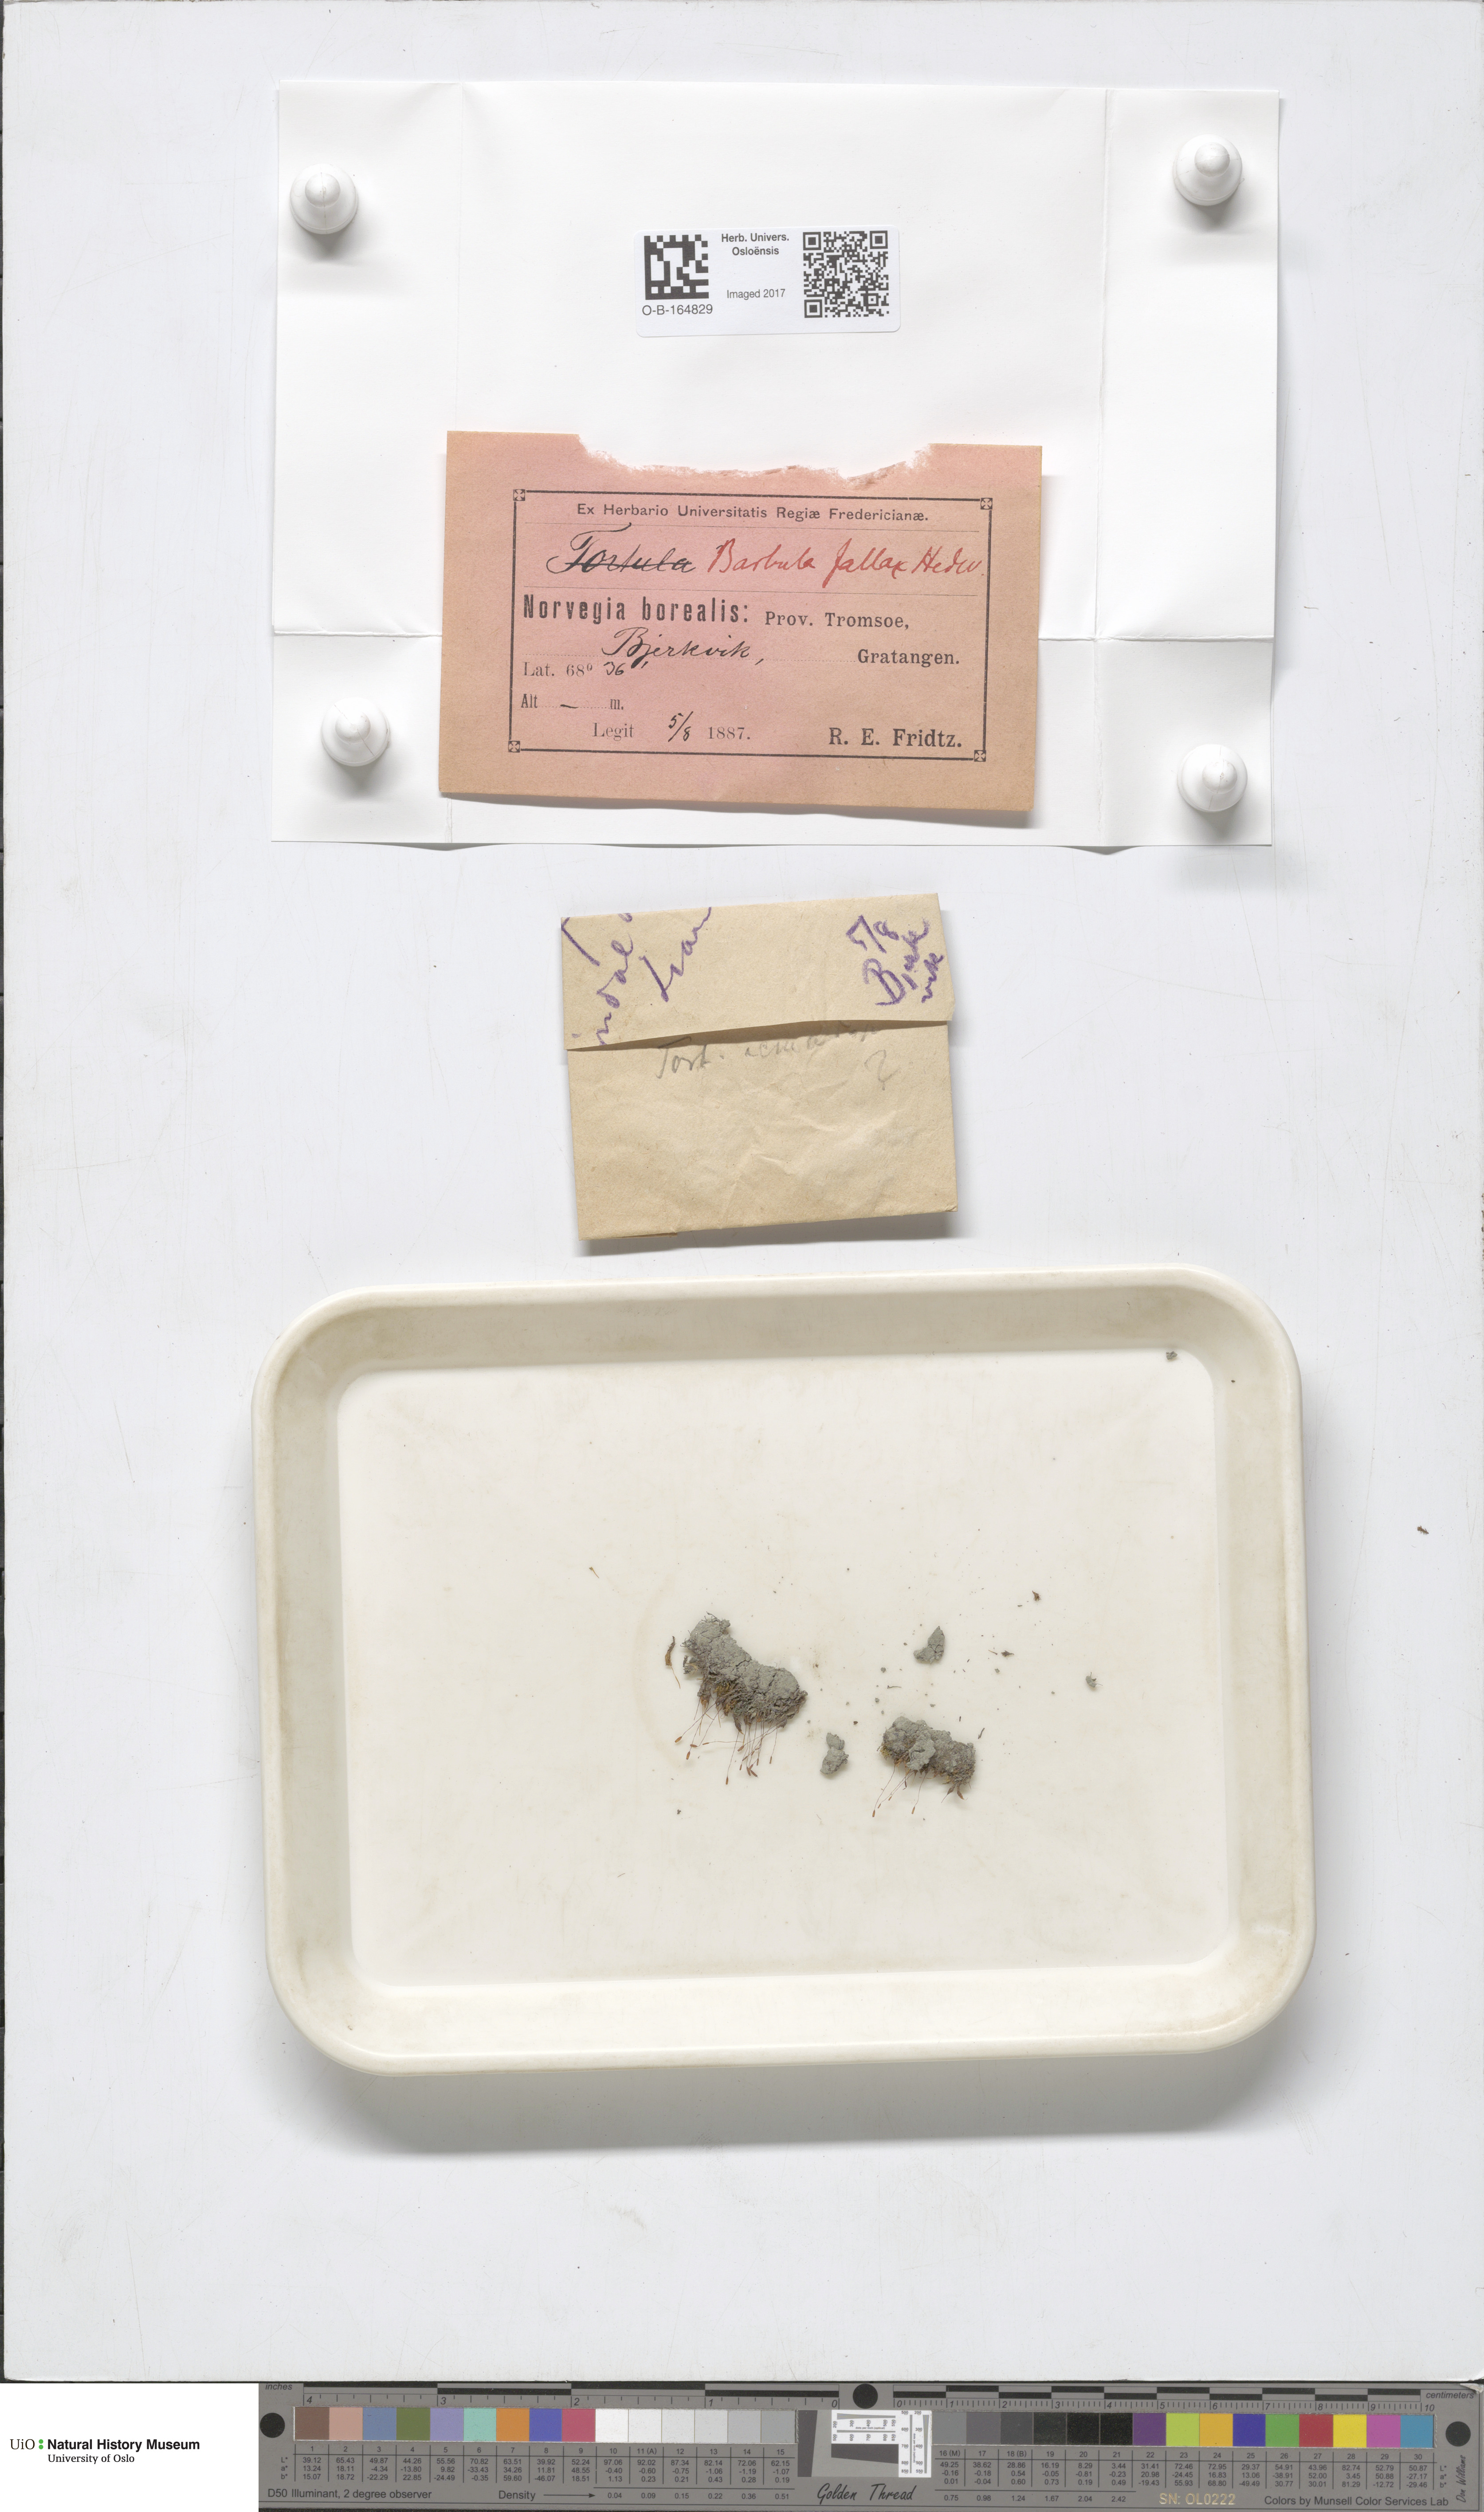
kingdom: Plantae
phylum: Bryophyta
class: Bryopsida
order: Pottiales
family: Pottiaceae
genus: Geheebia
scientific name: Geheebia fallax
